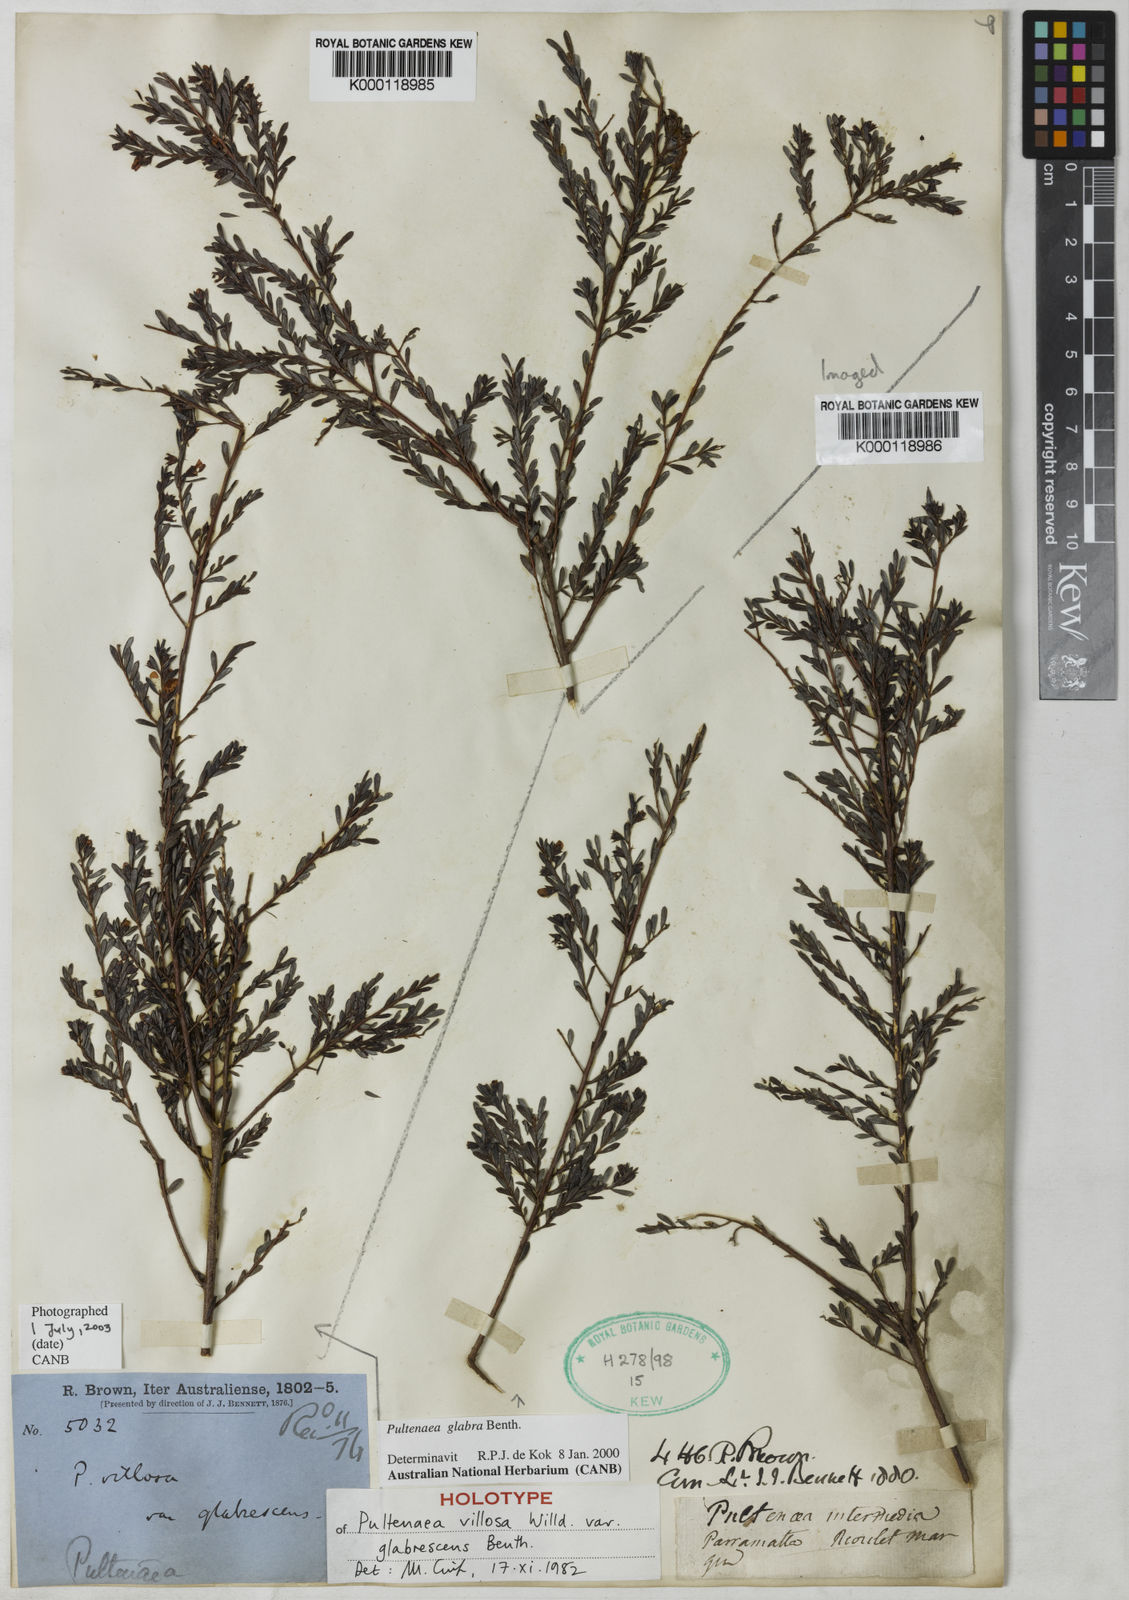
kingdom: Plantae
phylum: Tracheophyta
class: Magnoliopsida
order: Fabales
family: Fabaceae
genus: Pultenaea
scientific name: Pultenaea glabra
